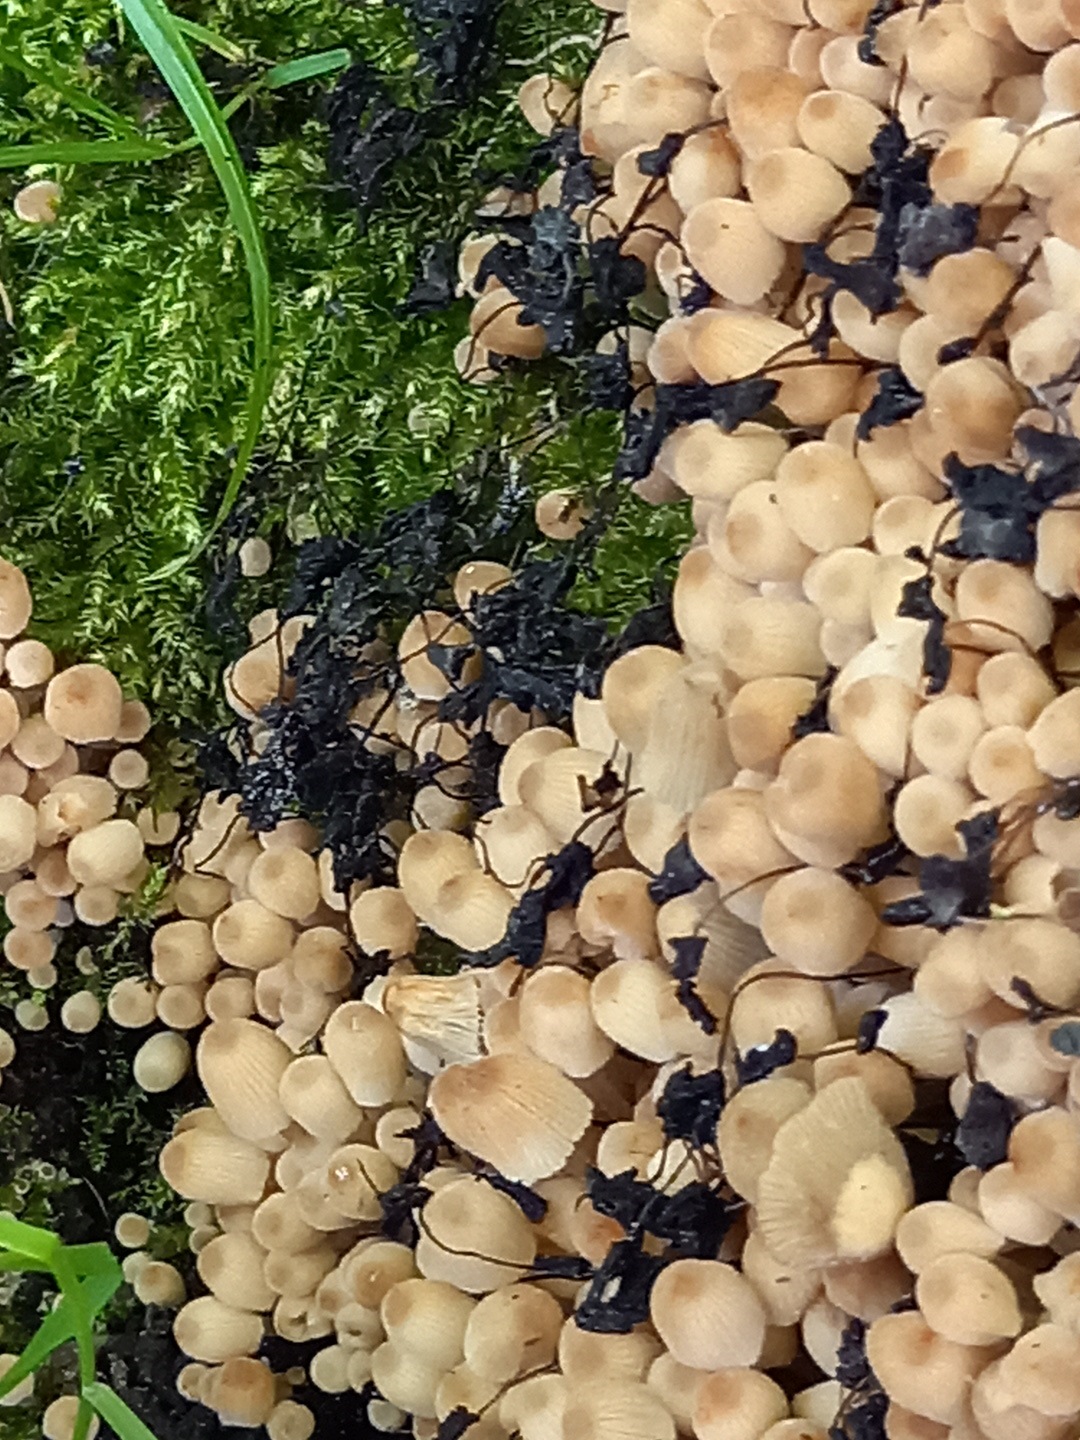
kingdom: Fungi
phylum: Basidiomycota
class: Agaricomycetes
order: Agaricales
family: Psathyrellaceae
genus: Coprinellus
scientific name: Coprinellus disseminatus
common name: bredsået blækhat
